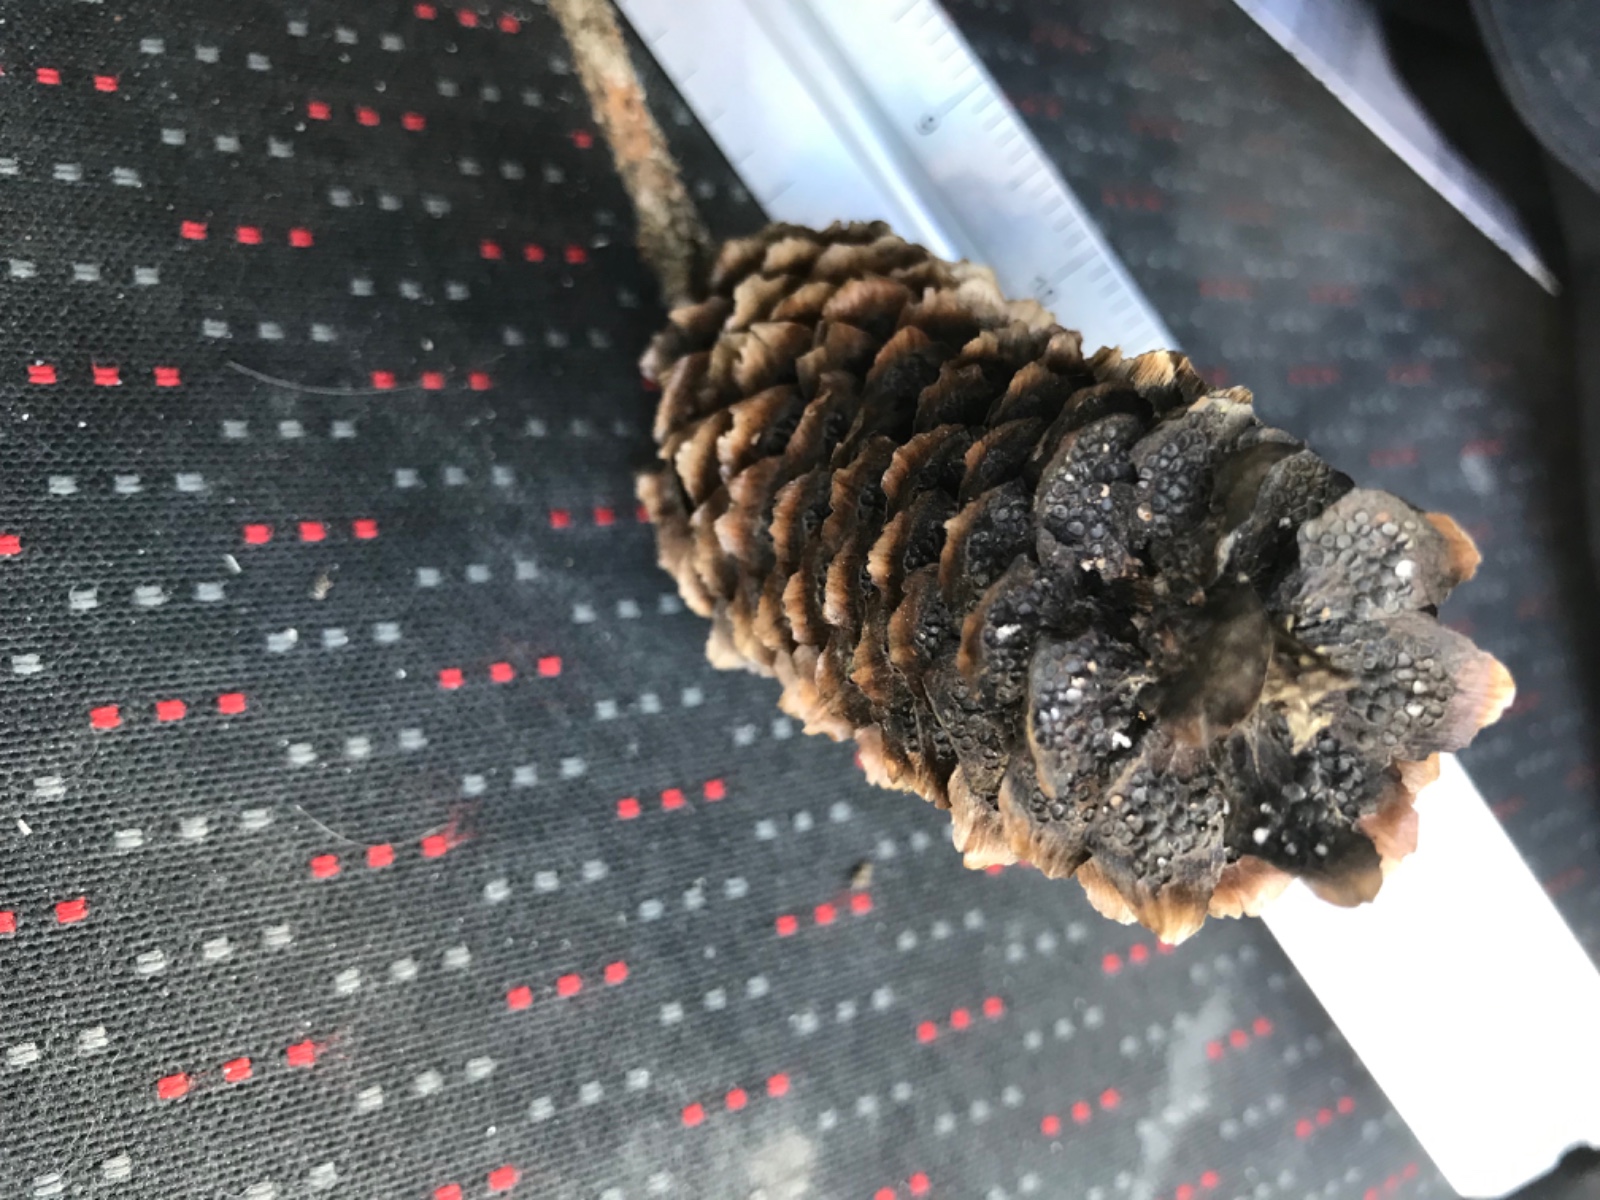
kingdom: Fungi
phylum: Basidiomycota
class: Pucciniomycetes
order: Pucciniales
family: Pucciniastraceae
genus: Thekopsora
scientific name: Thekopsora areolata
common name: grankogle-nålerust
